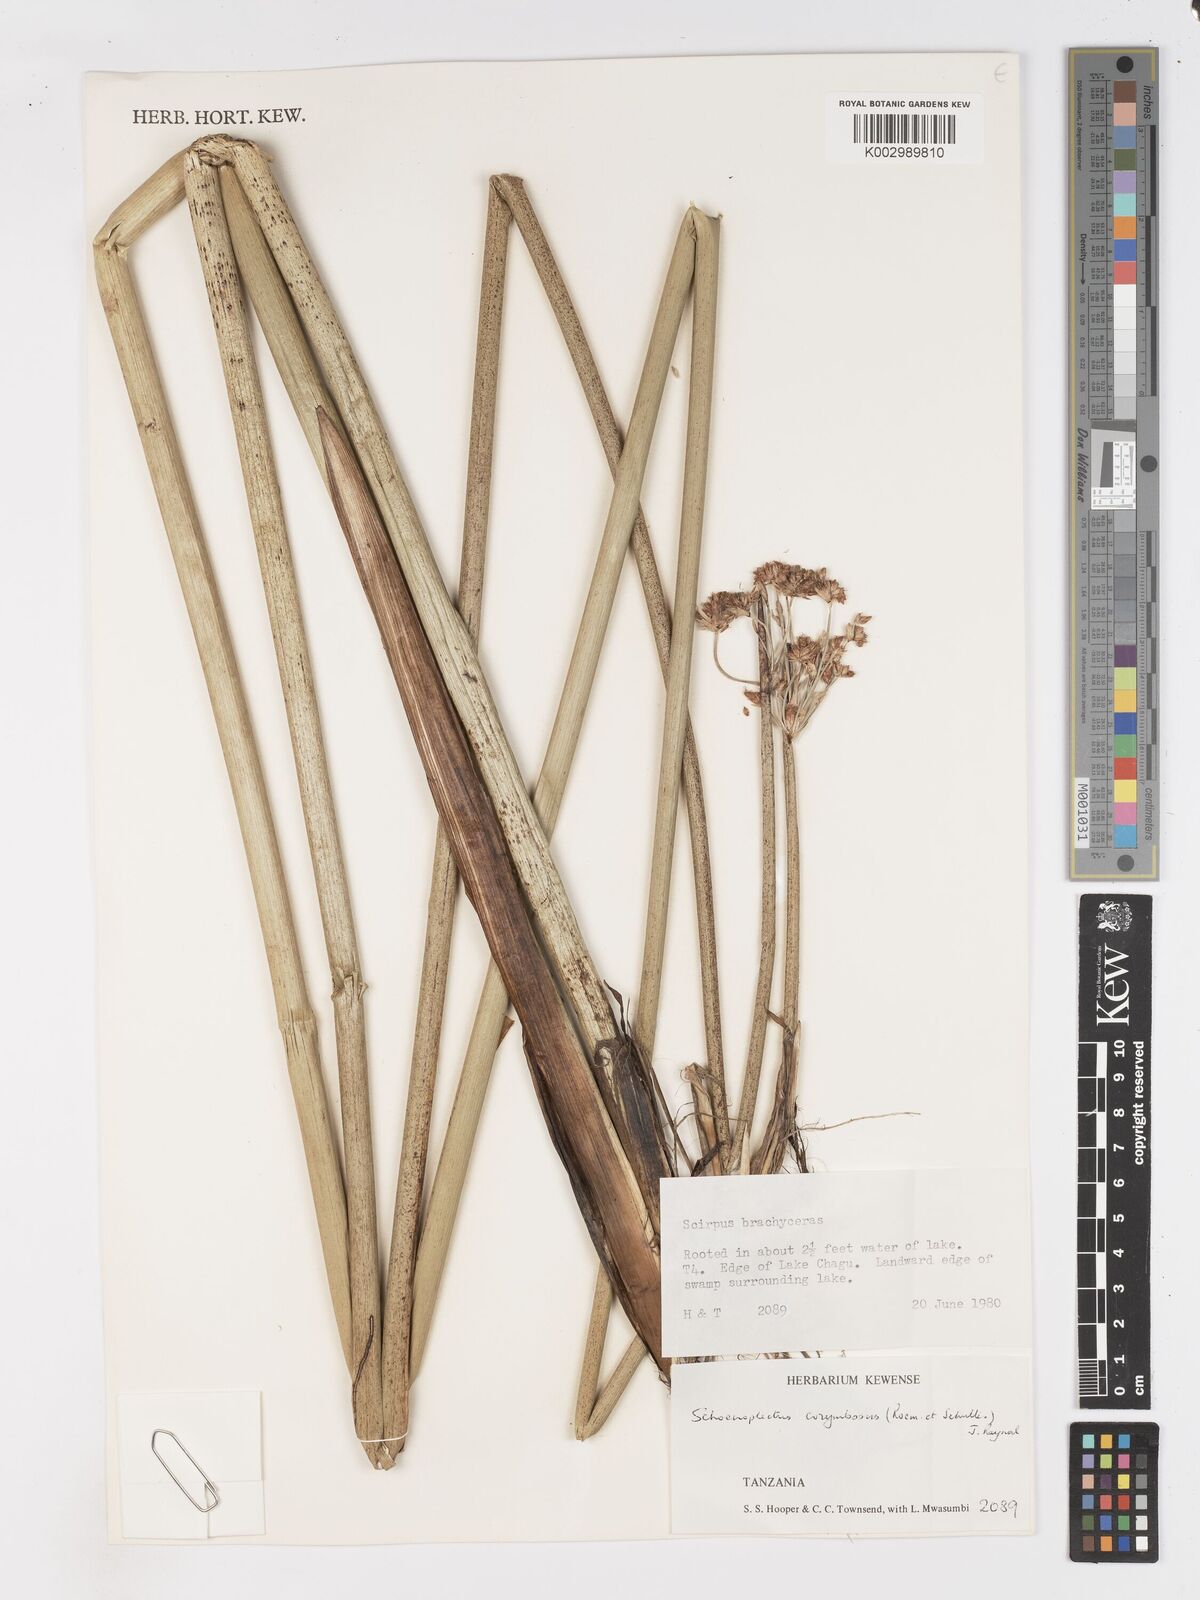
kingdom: Plantae
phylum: Tracheophyta
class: Liliopsida
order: Poales
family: Cyperaceae
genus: Schoenoplectiella
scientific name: Schoenoplectiella brachyceras
